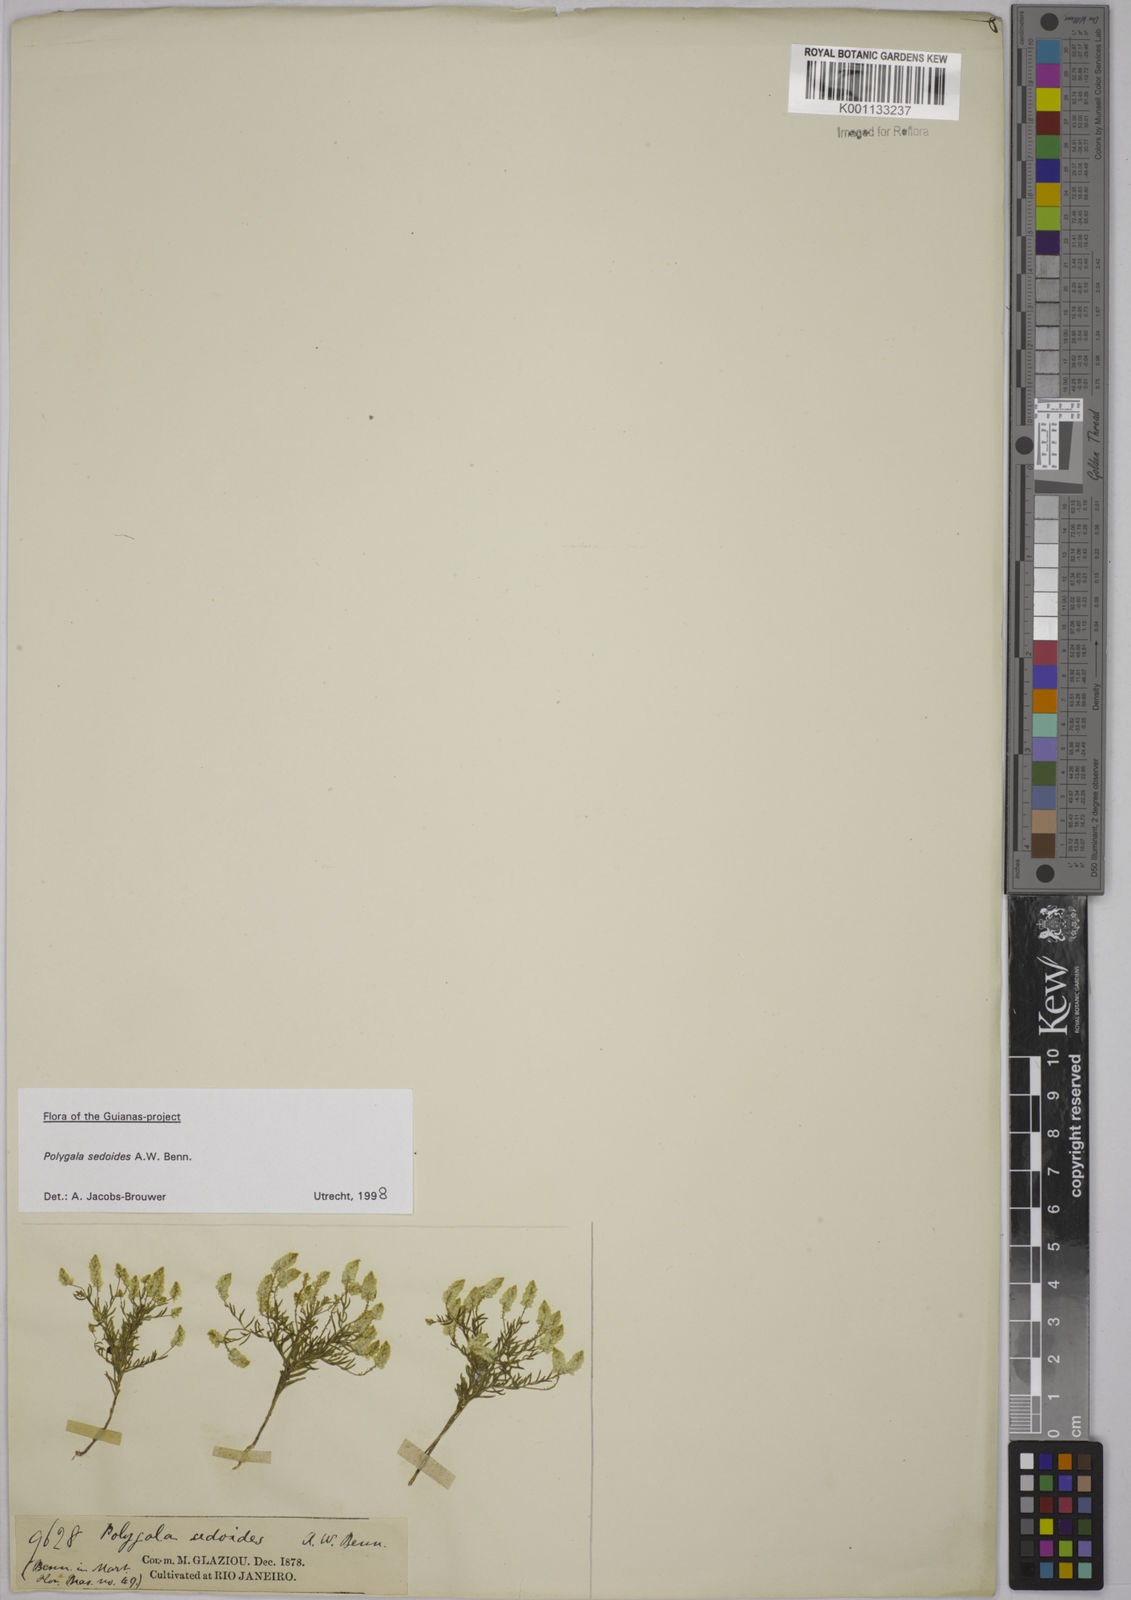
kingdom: Plantae
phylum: Tracheophyta
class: Magnoliopsida
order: Fabales
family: Polygalaceae
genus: Polygala
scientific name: Polygala sedoides
